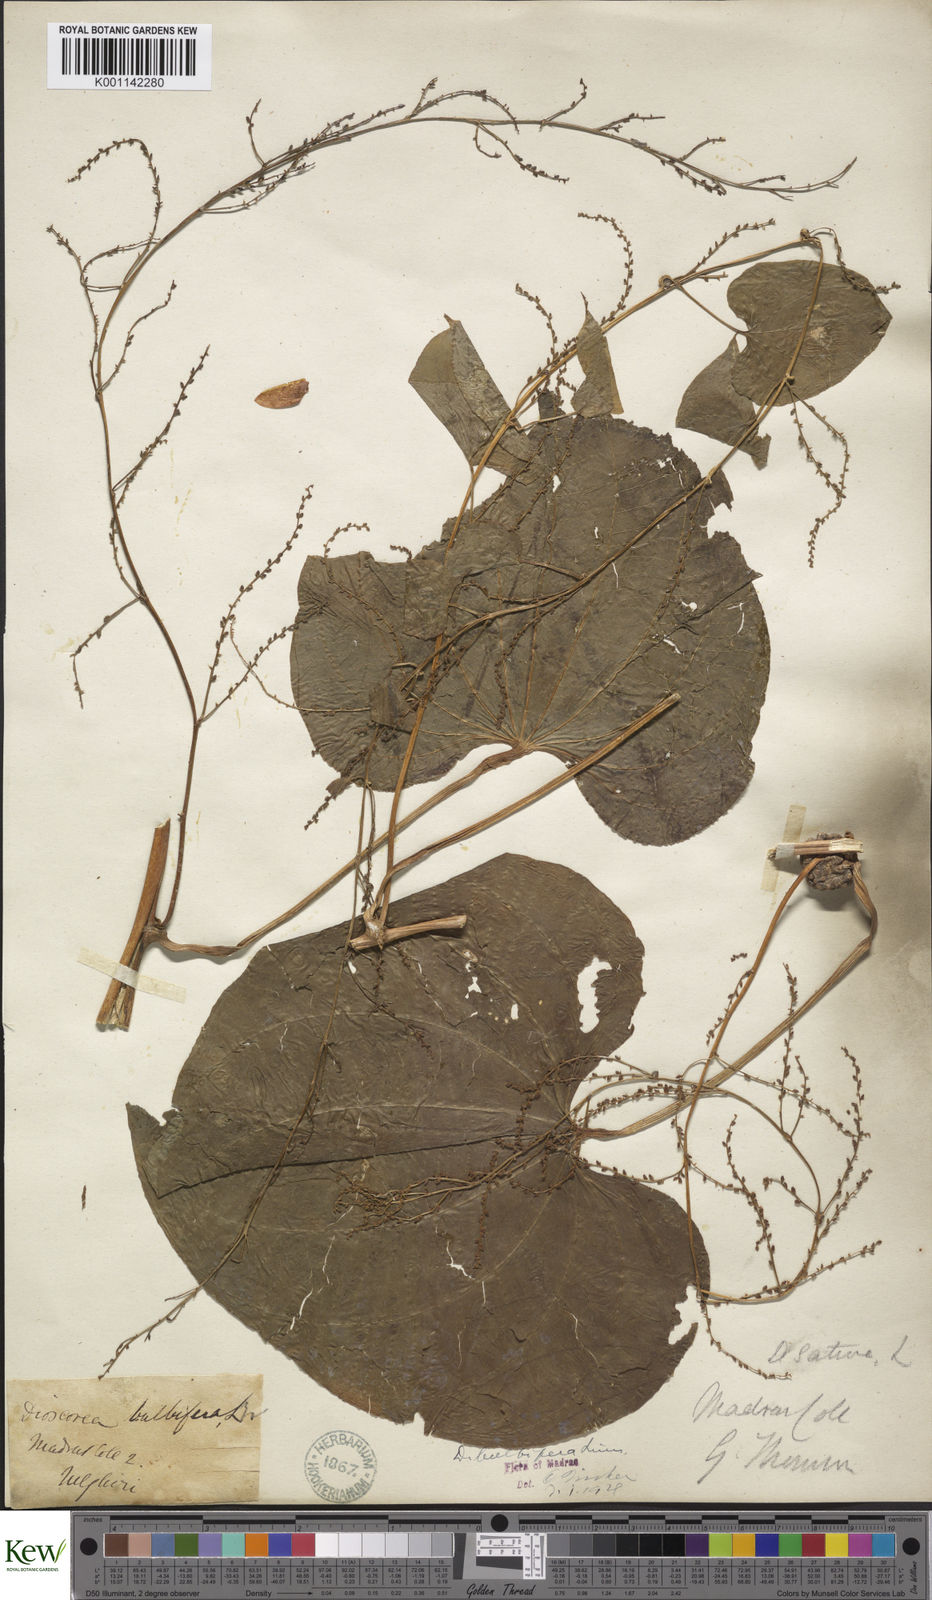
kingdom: Plantae
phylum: Tracheophyta
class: Liliopsida
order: Dioscoreales
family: Dioscoreaceae
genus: Dioscorea
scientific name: Dioscorea bulbifera
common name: Air yam
